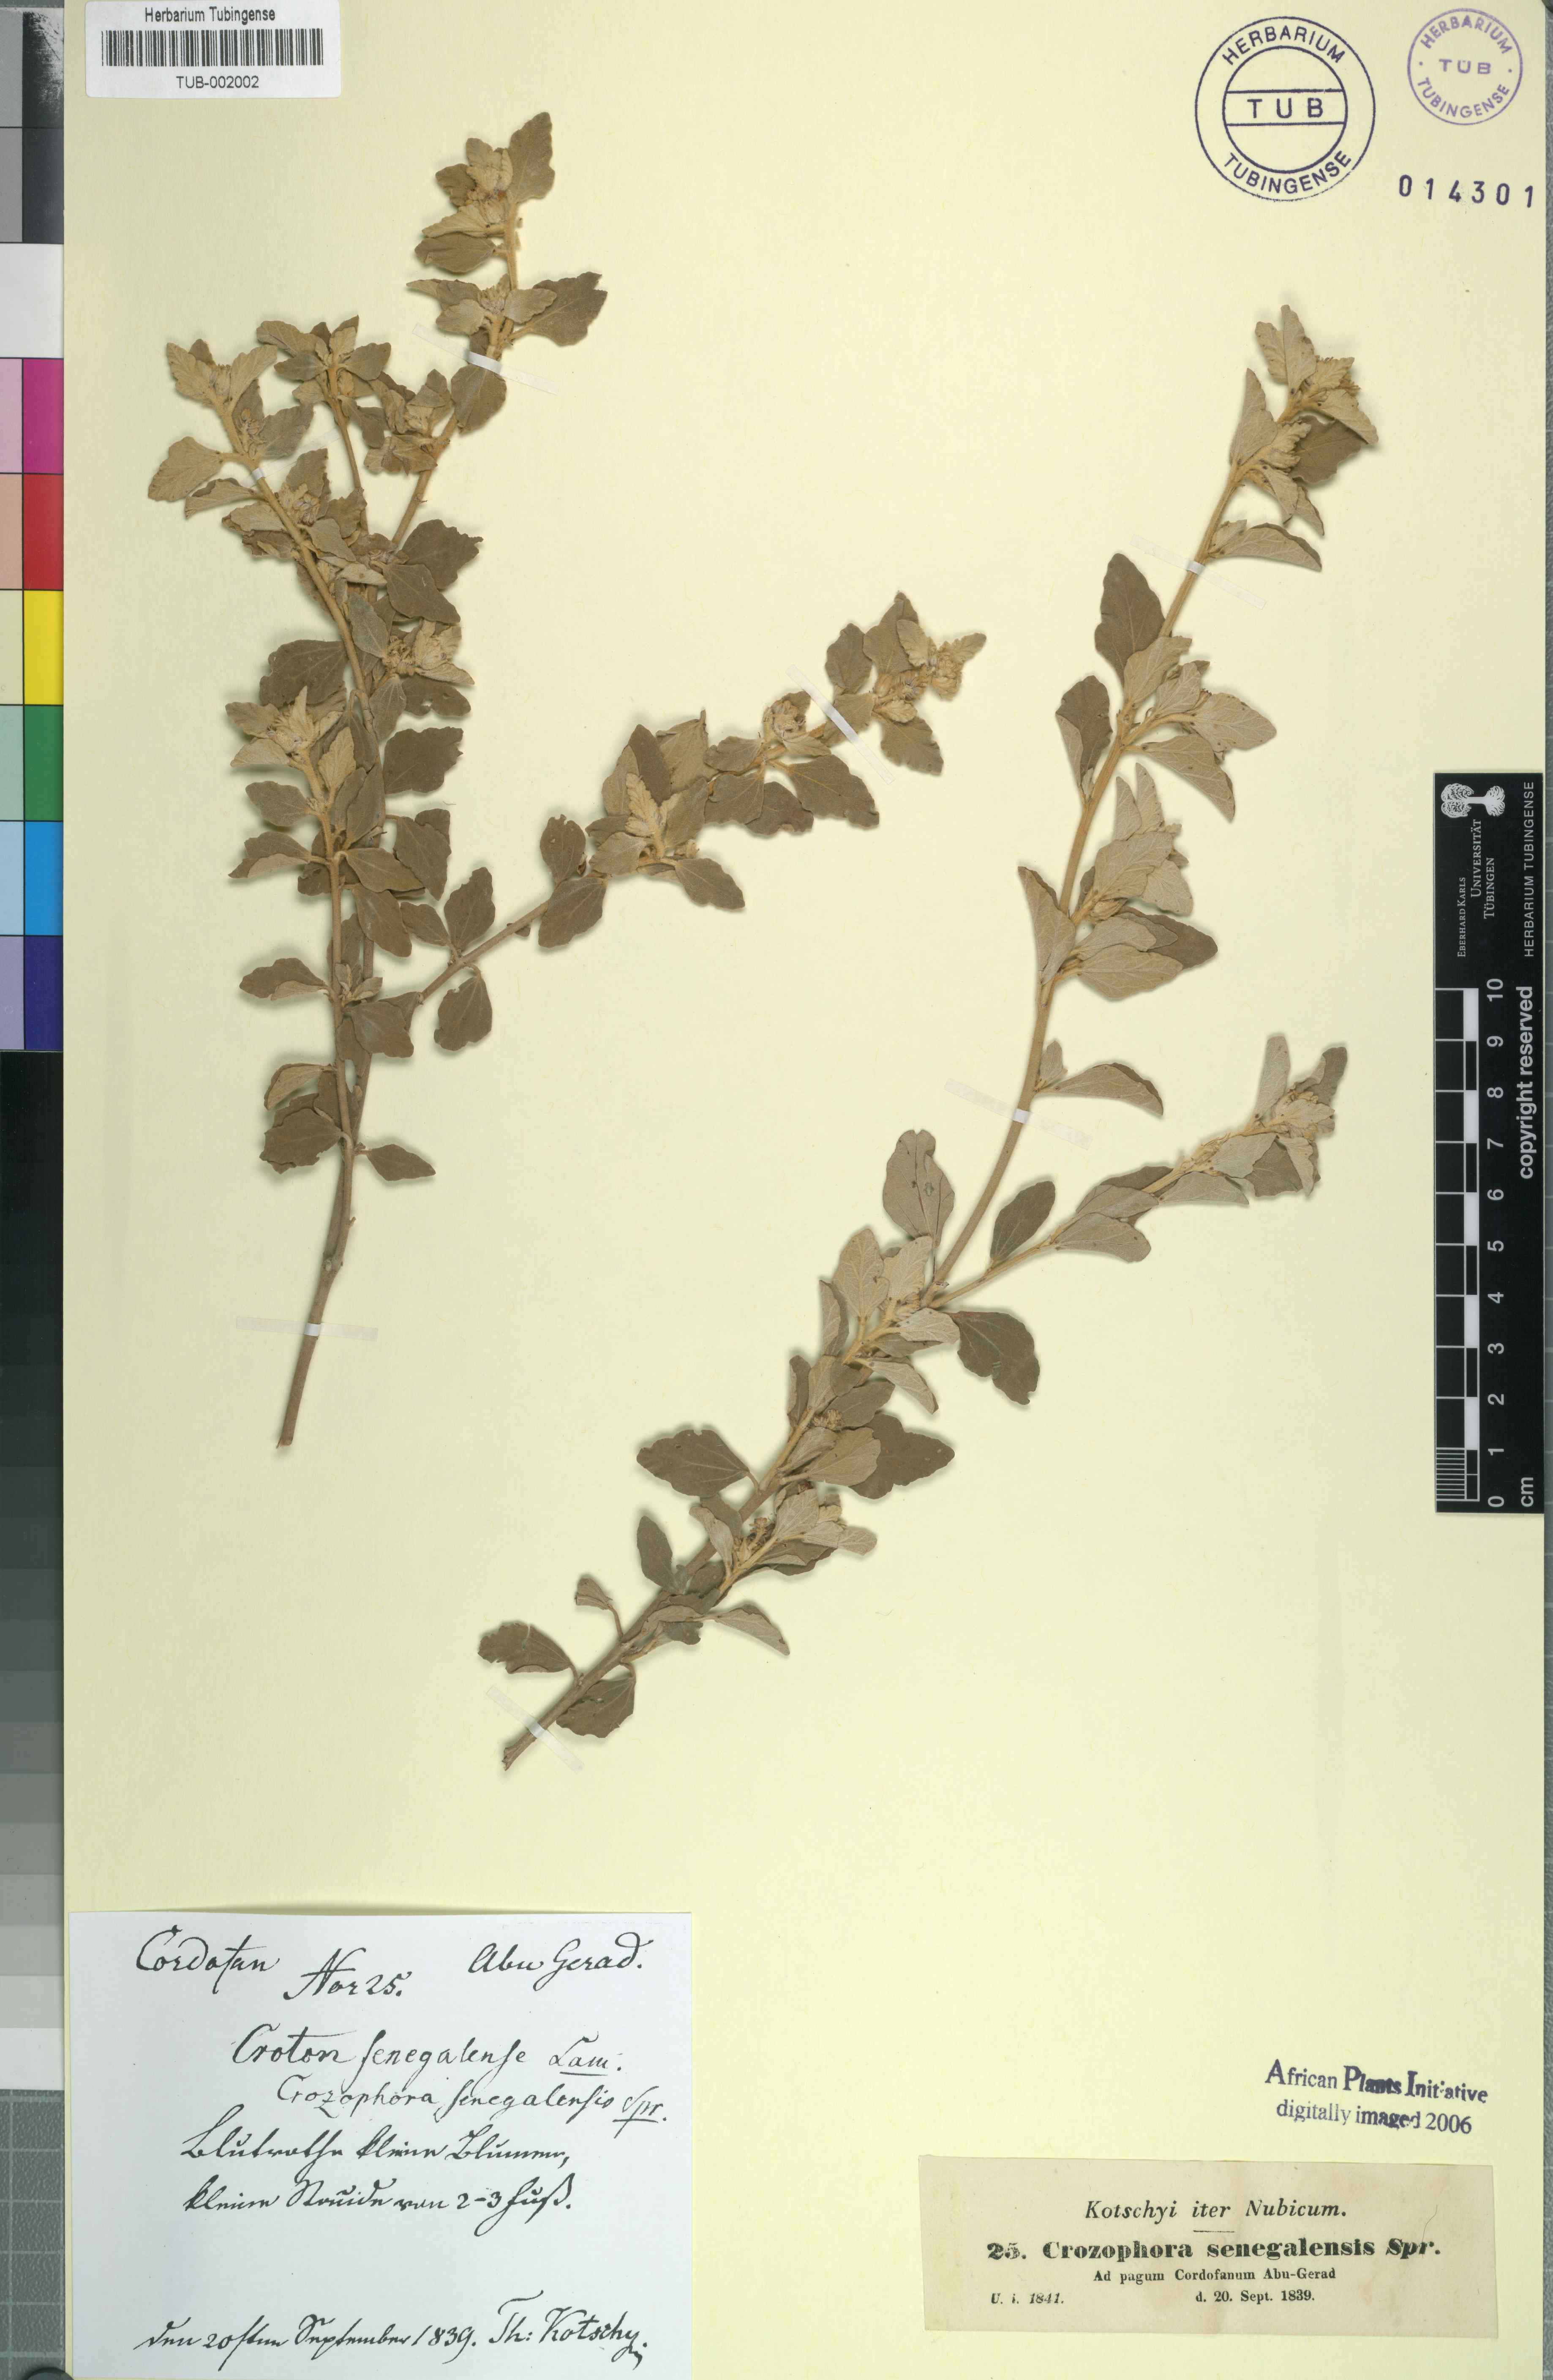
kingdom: Plantae
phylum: Tracheophyta
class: Magnoliopsida
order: Malpighiales
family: Euphorbiaceae
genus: Chrozophora
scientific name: Chrozophora plicata
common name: Giradol
